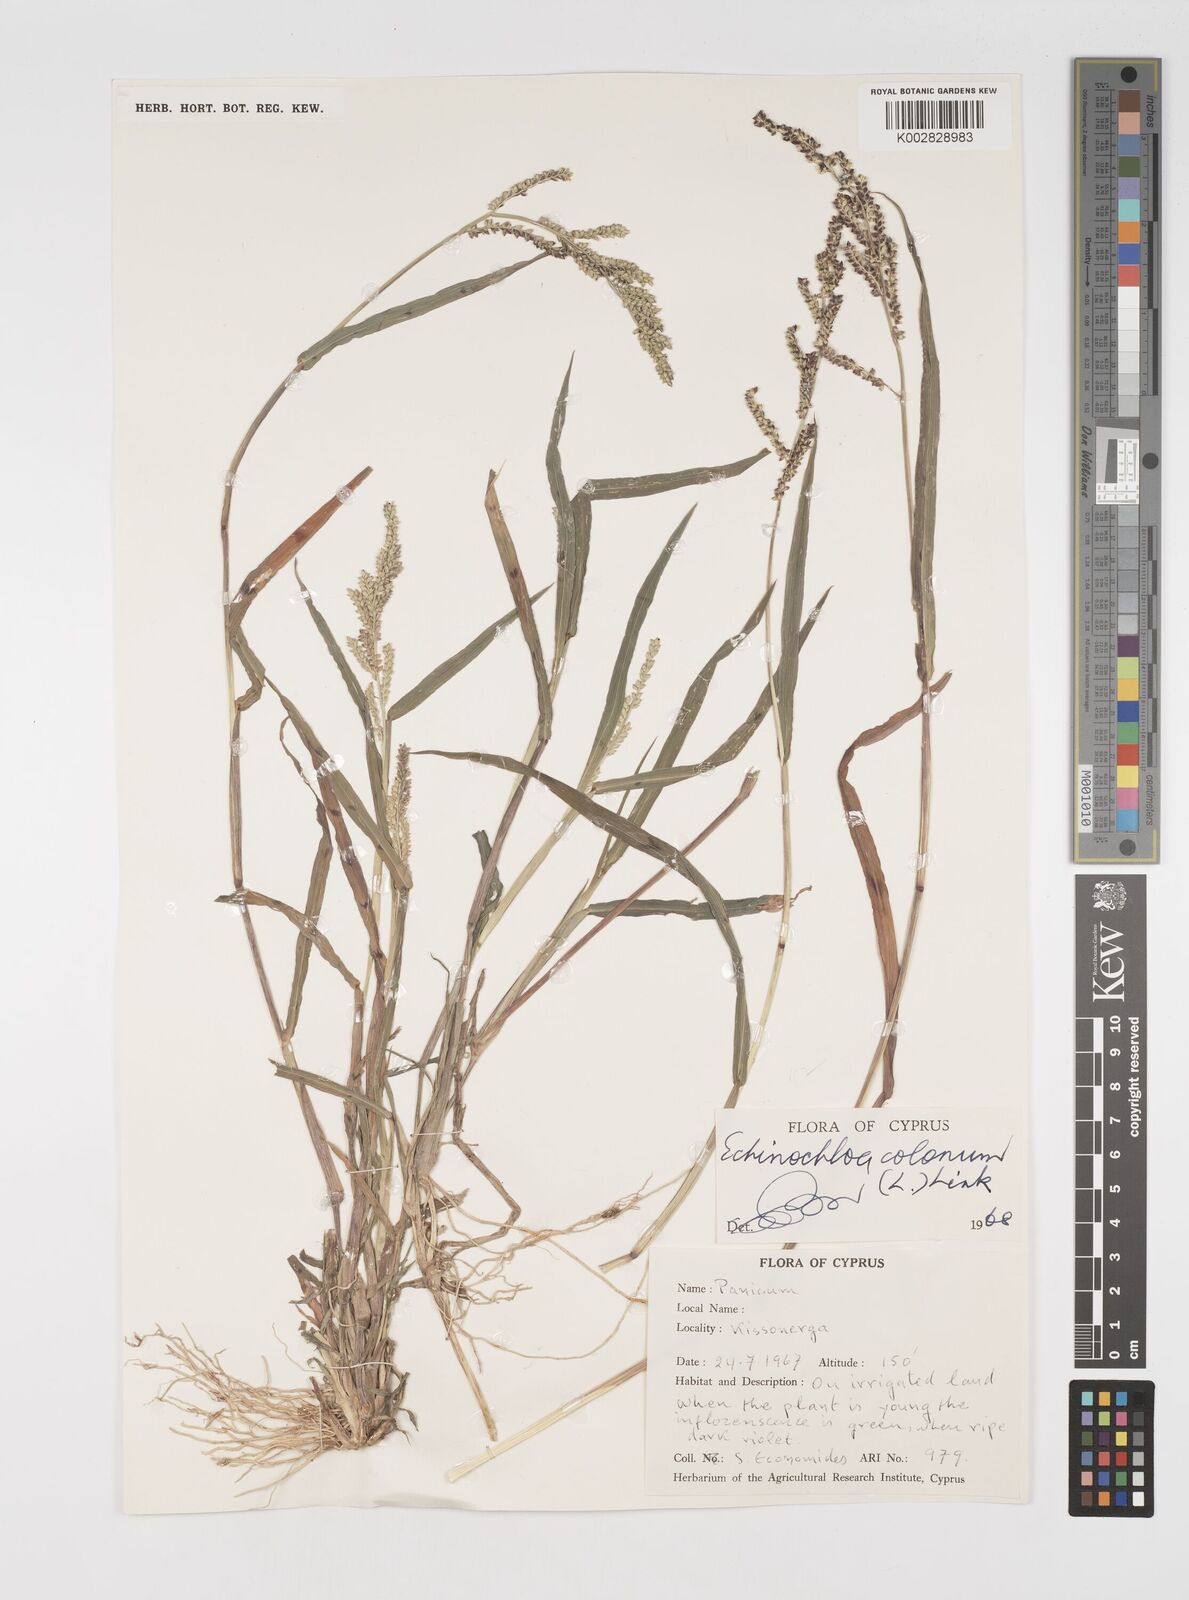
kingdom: Plantae
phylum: Tracheophyta
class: Liliopsida
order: Poales
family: Poaceae
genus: Echinochloa
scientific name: Echinochloa colonum
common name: Jungle rice
